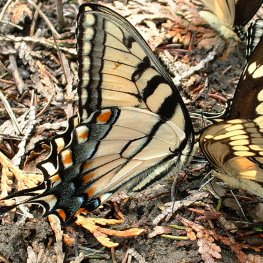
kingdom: Animalia
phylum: Arthropoda
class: Insecta
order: Lepidoptera
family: Papilionidae
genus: Pterourus
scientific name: Pterourus glaucus
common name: Eastern Tiger Swallowtail
